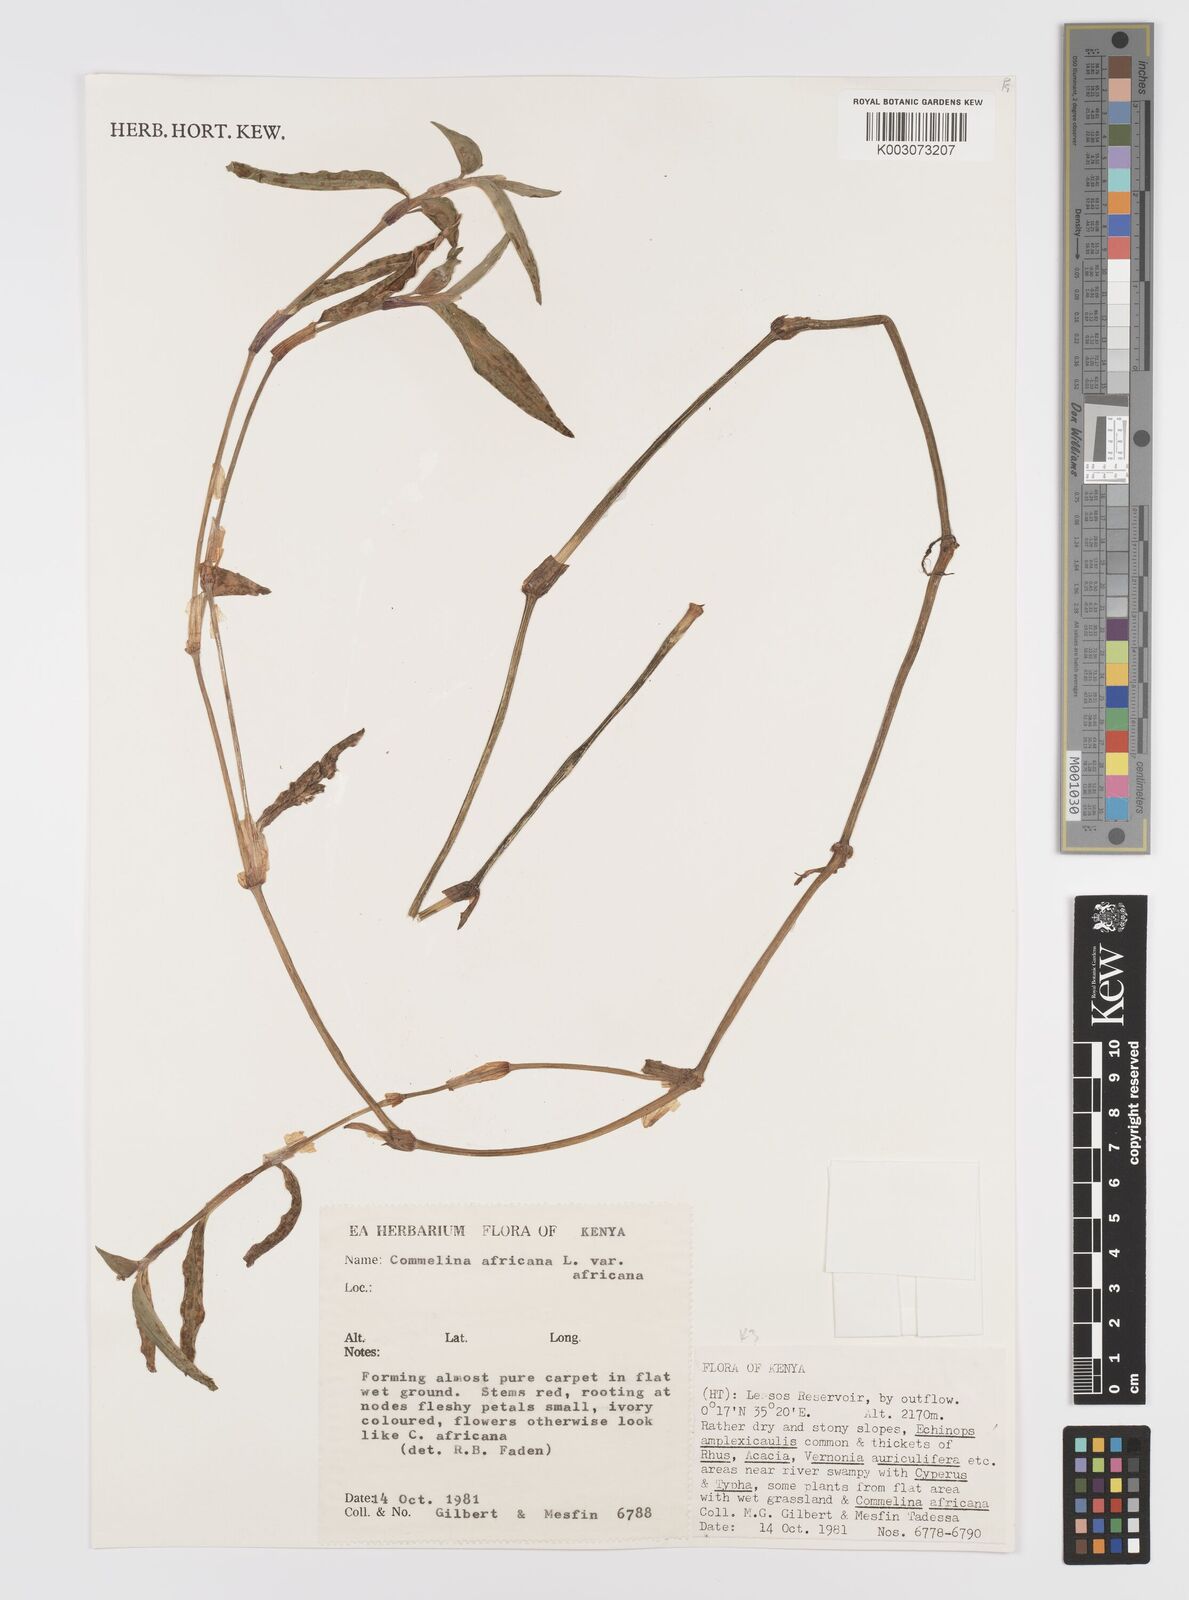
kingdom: Plantae
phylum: Tracheophyta
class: Liliopsida
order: Commelinales
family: Commelinaceae
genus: Commelina
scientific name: Commelina africana
